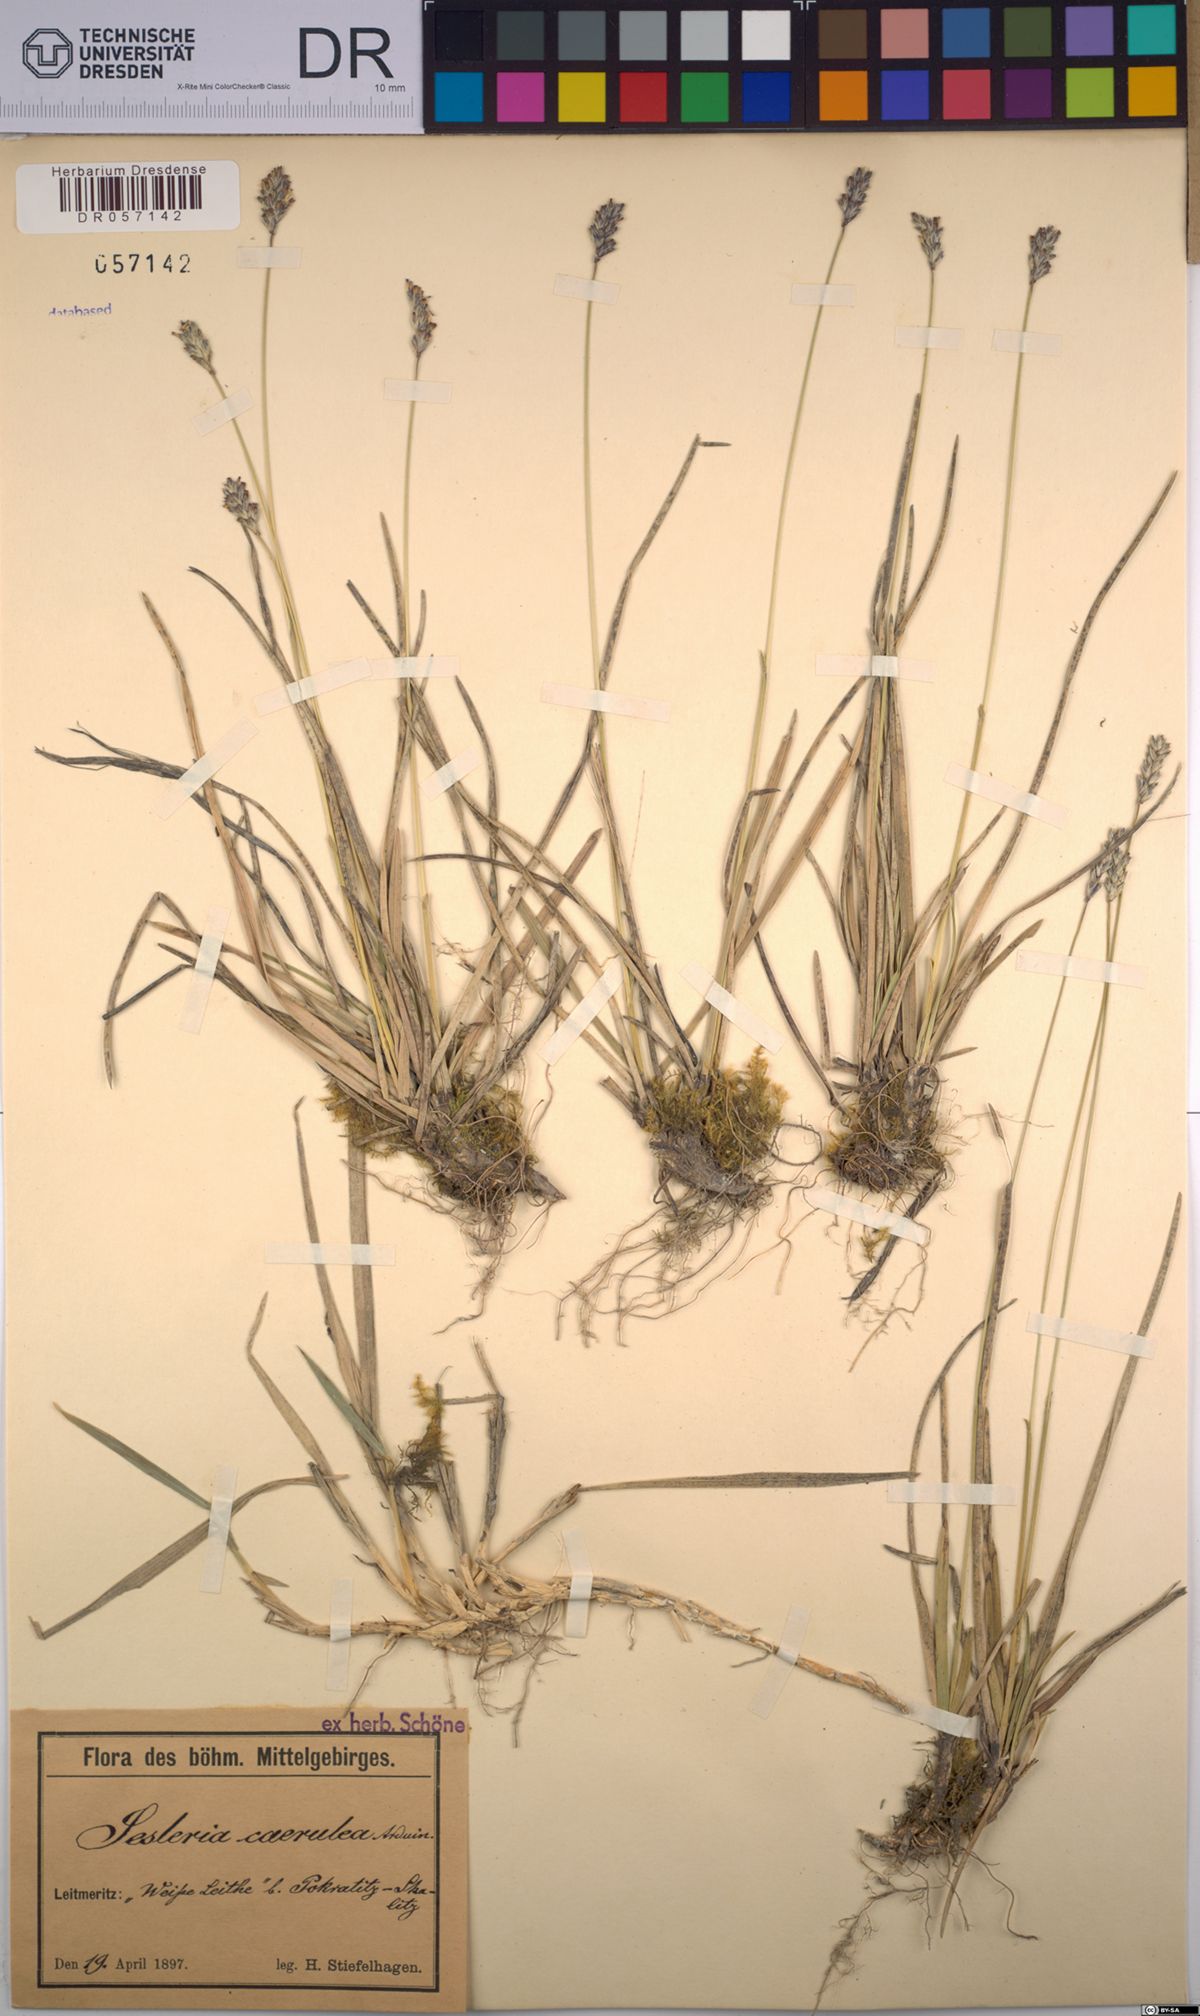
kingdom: Plantae
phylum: Tracheophyta
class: Liliopsida
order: Poales
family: Poaceae
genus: Sesleria
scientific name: Sesleria caerulea
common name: Blue moor-grass
